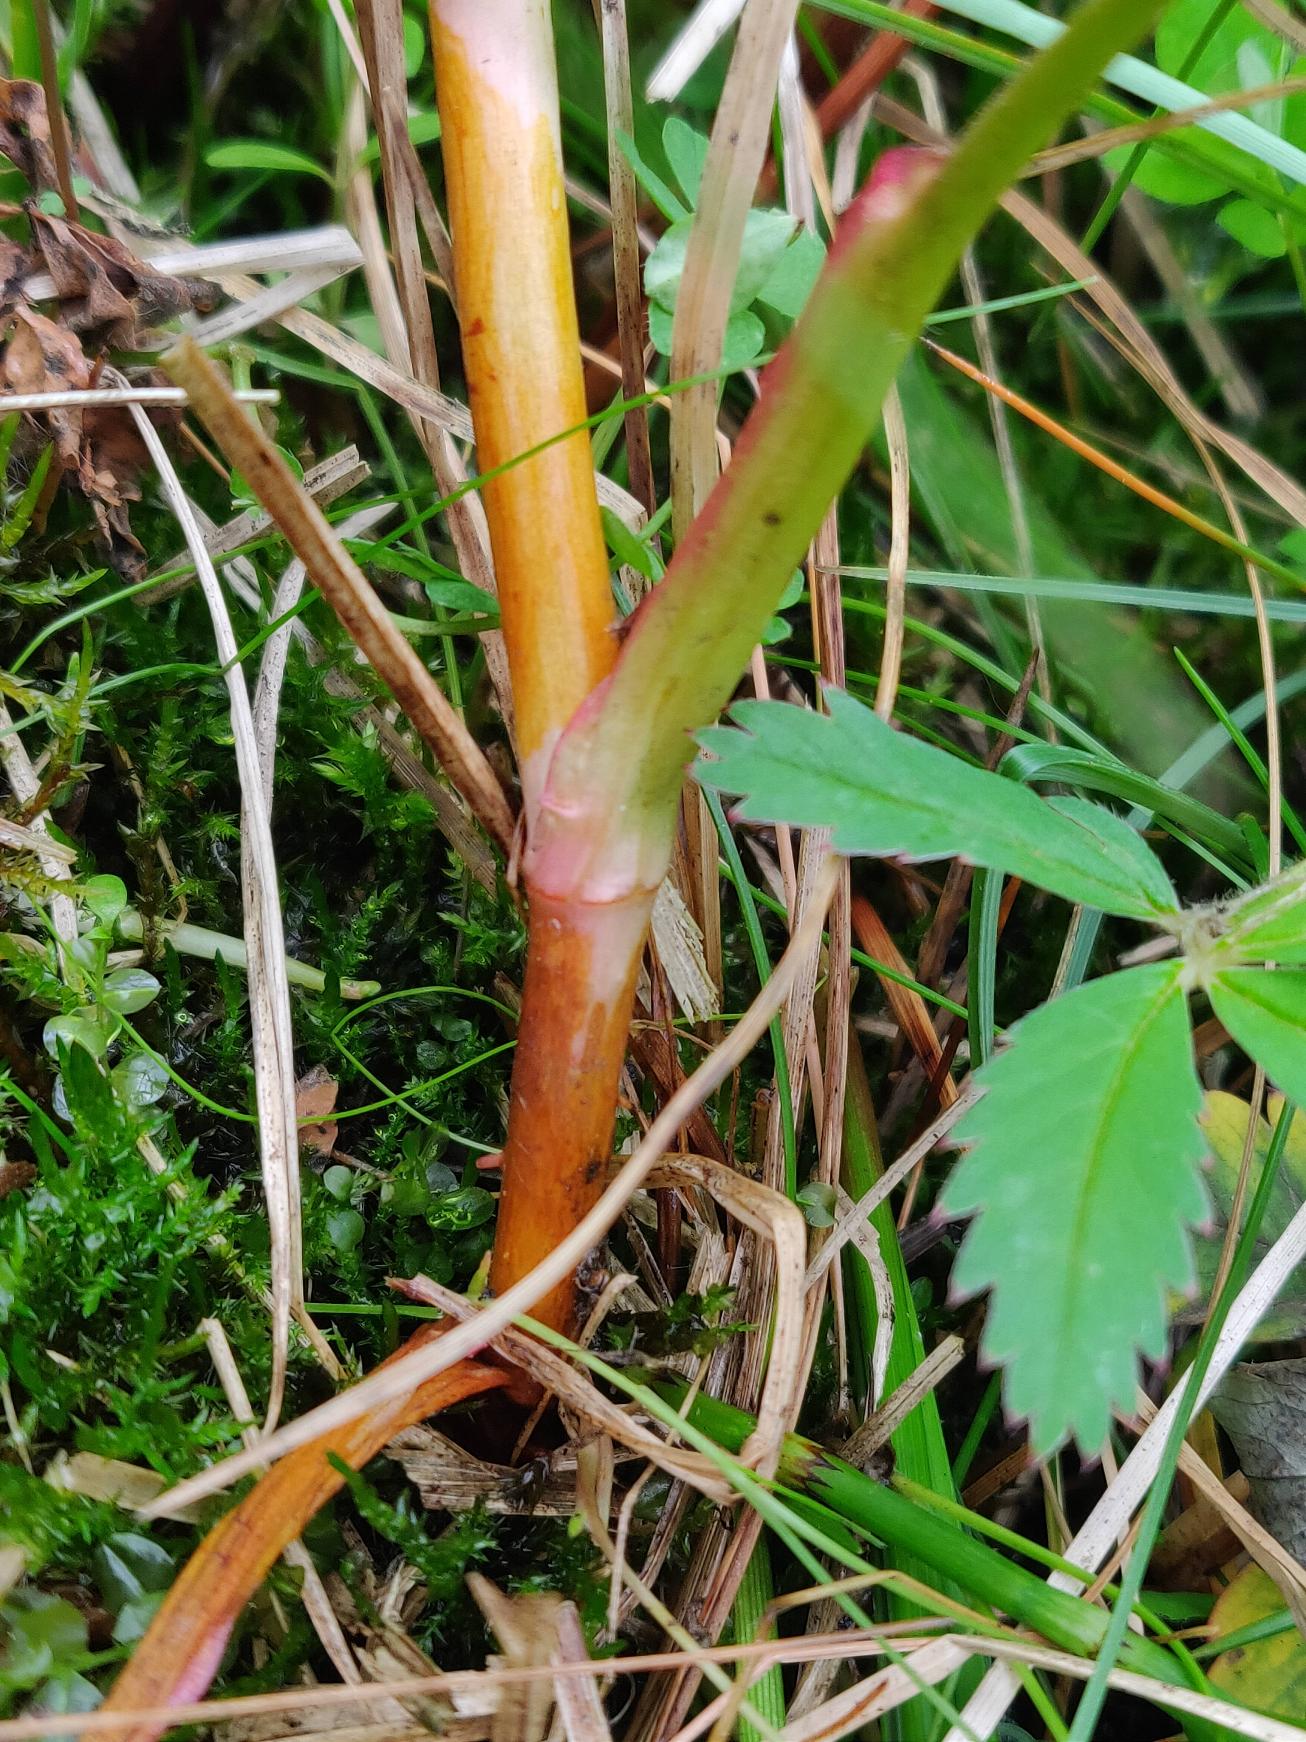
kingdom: Plantae
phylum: Tracheophyta
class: Magnoliopsida
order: Rosales
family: Rosaceae
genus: Comarum
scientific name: Comarum palustre
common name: Kragefod
